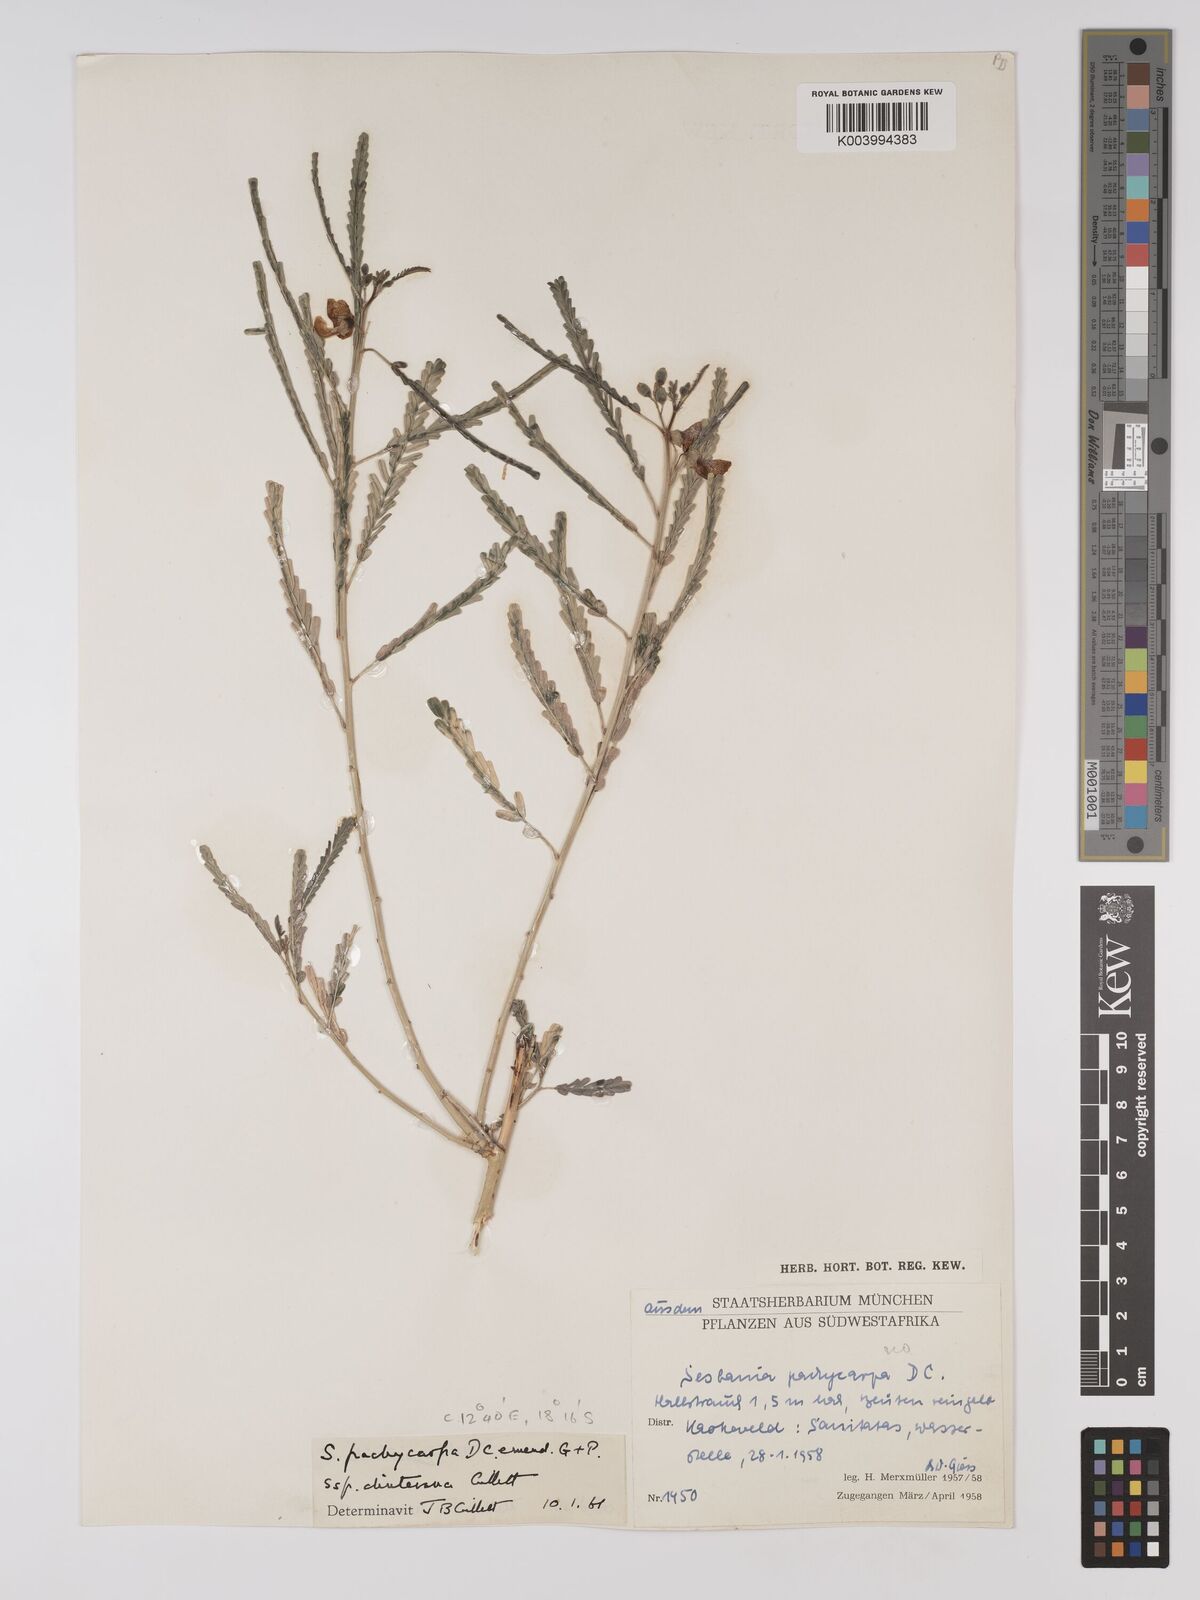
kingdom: Plantae
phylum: Tracheophyta
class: Magnoliopsida
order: Fabales
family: Fabaceae
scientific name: Fabaceae
